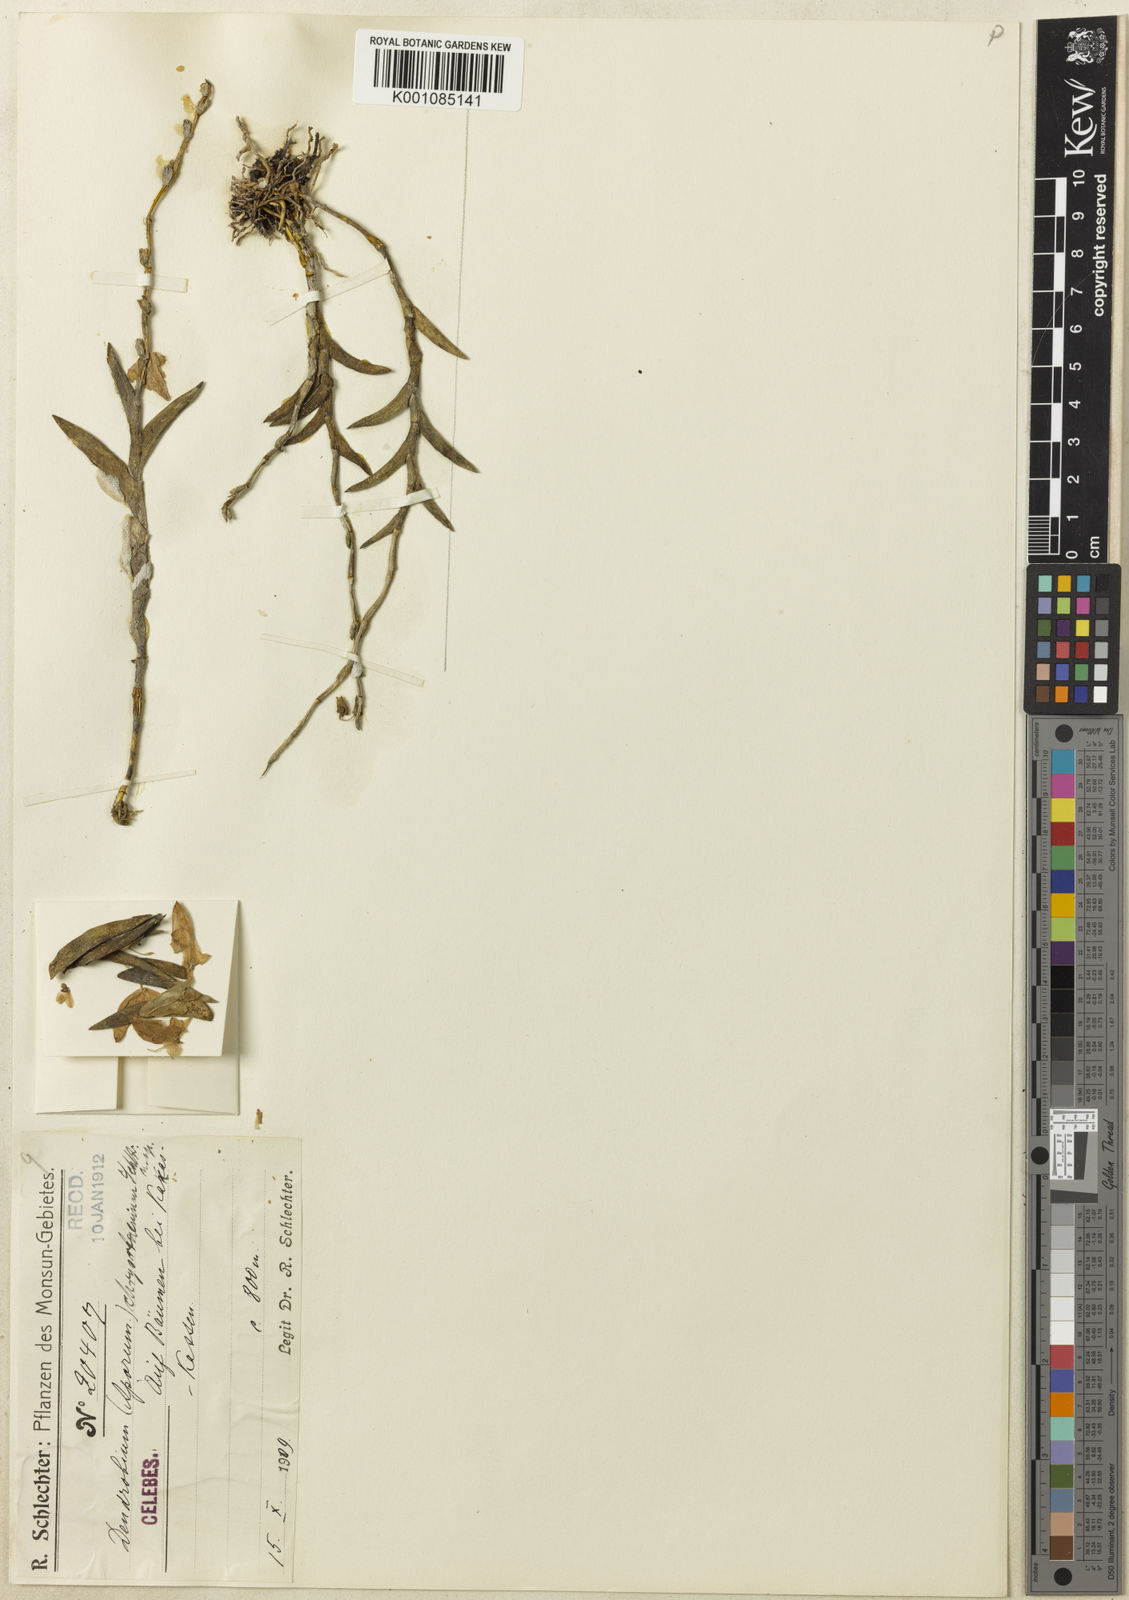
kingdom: Plantae
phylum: Tracheophyta
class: Liliopsida
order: Asparagales
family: Orchidaceae
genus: Dendrobium
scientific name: Dendrobium
